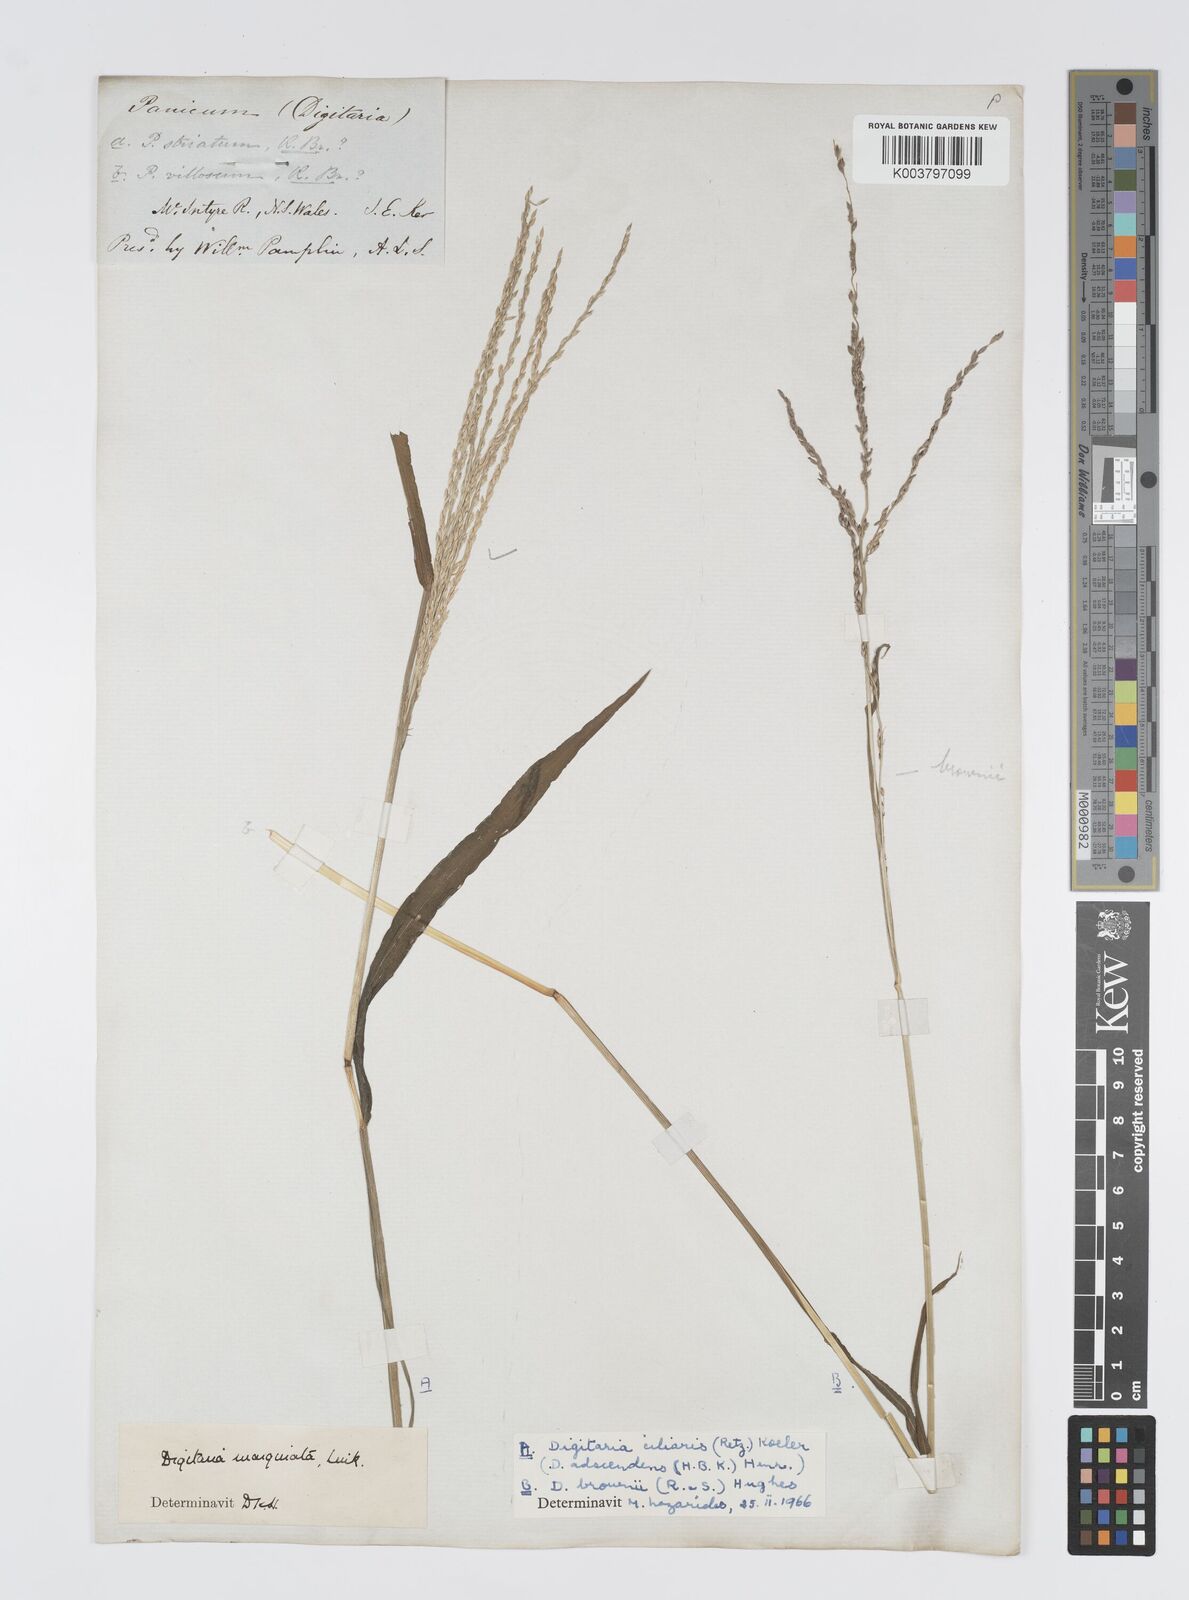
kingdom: Plantae
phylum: Tracheophyta
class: Liliopsida
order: Poales
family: Poaceae
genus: Digitaria
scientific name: Digitaria ciliaris
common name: Tropical finger-grass
